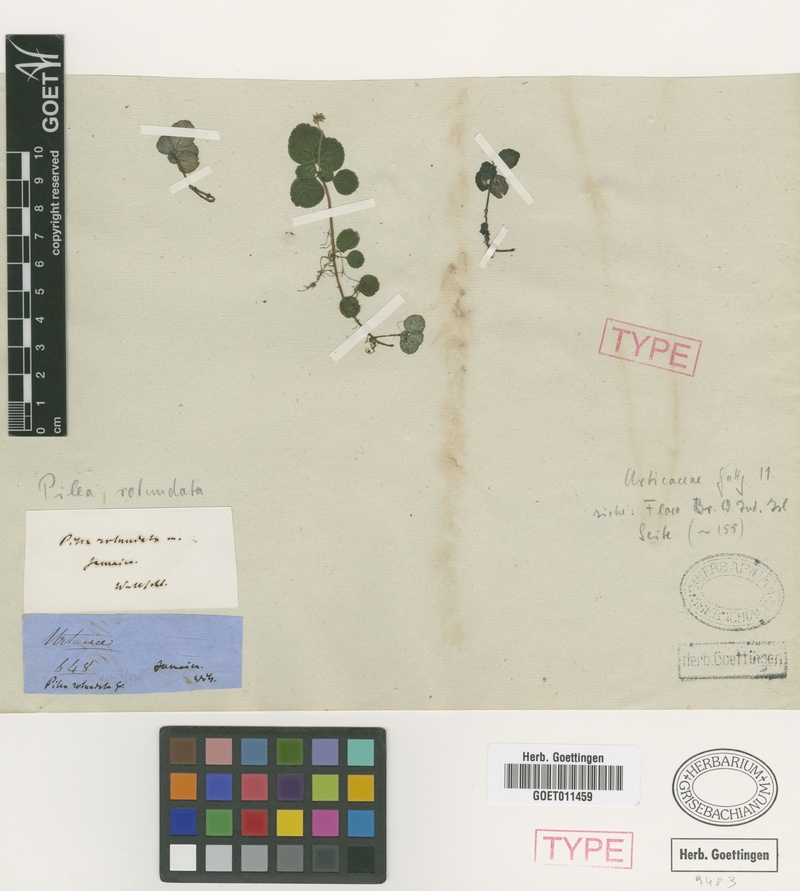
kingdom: Plantae
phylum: Tracheophyta
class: Magnoliopsida
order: Rosales
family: Urticaceae
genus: Pilea
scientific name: Pilea rotundata
